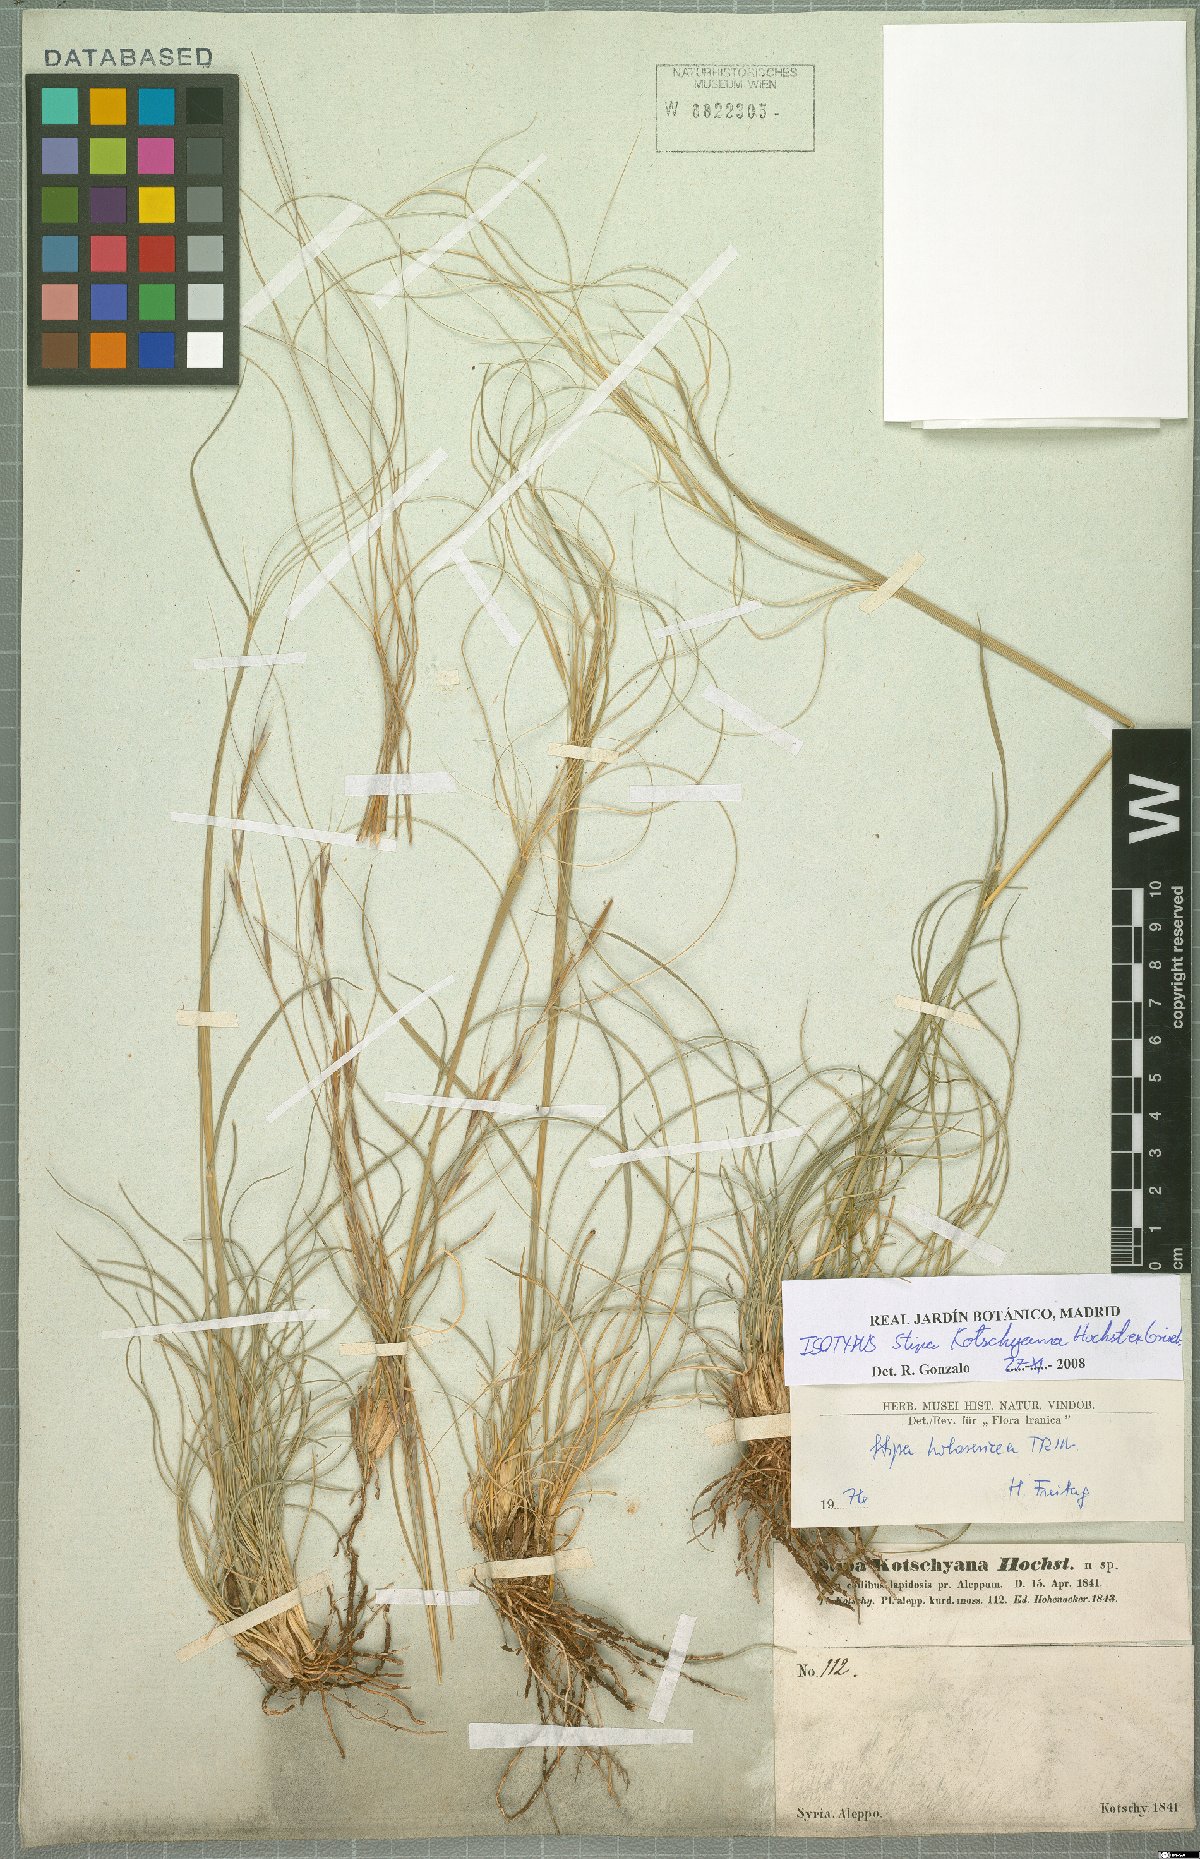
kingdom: Plantae
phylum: Tracheophyta
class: Liliopsida
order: Poales
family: Poaceae
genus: Stipa
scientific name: Stipa holosericea
